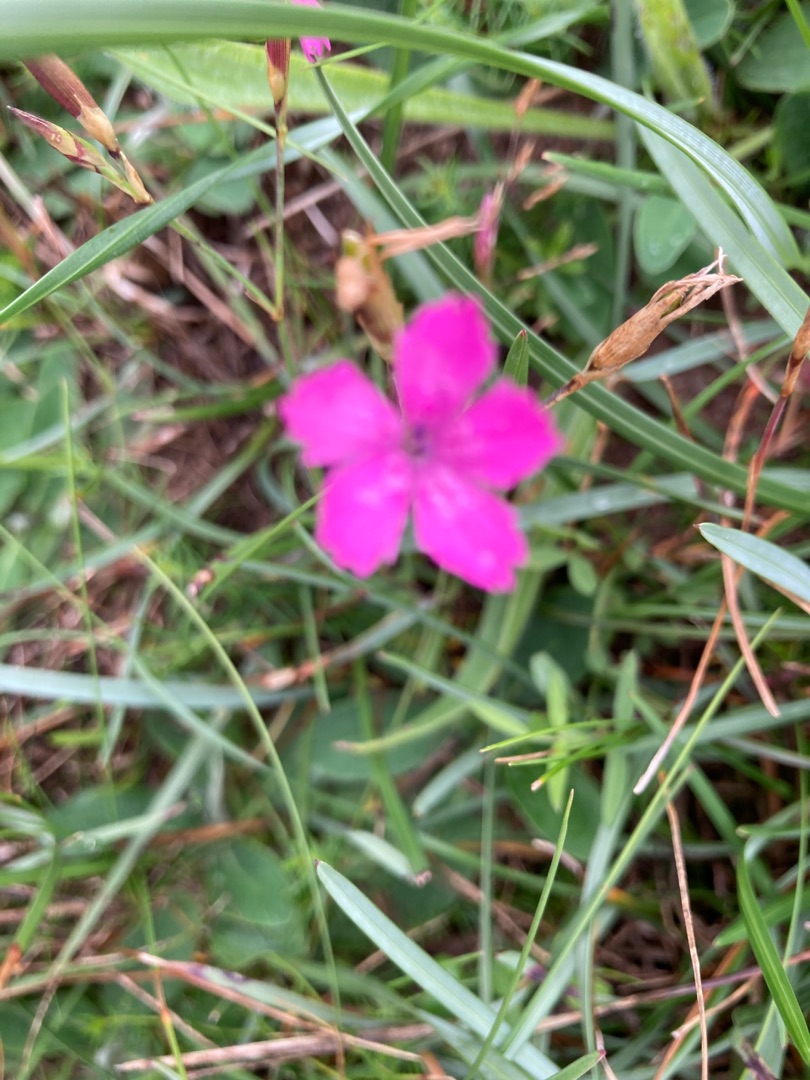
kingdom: Plantae
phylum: Tracheophyta
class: Magnoliopsida
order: Caryophyllales
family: Caryophyllaceae
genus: Dianthus
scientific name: Dianthus deltoides
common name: Bakke-nellike
